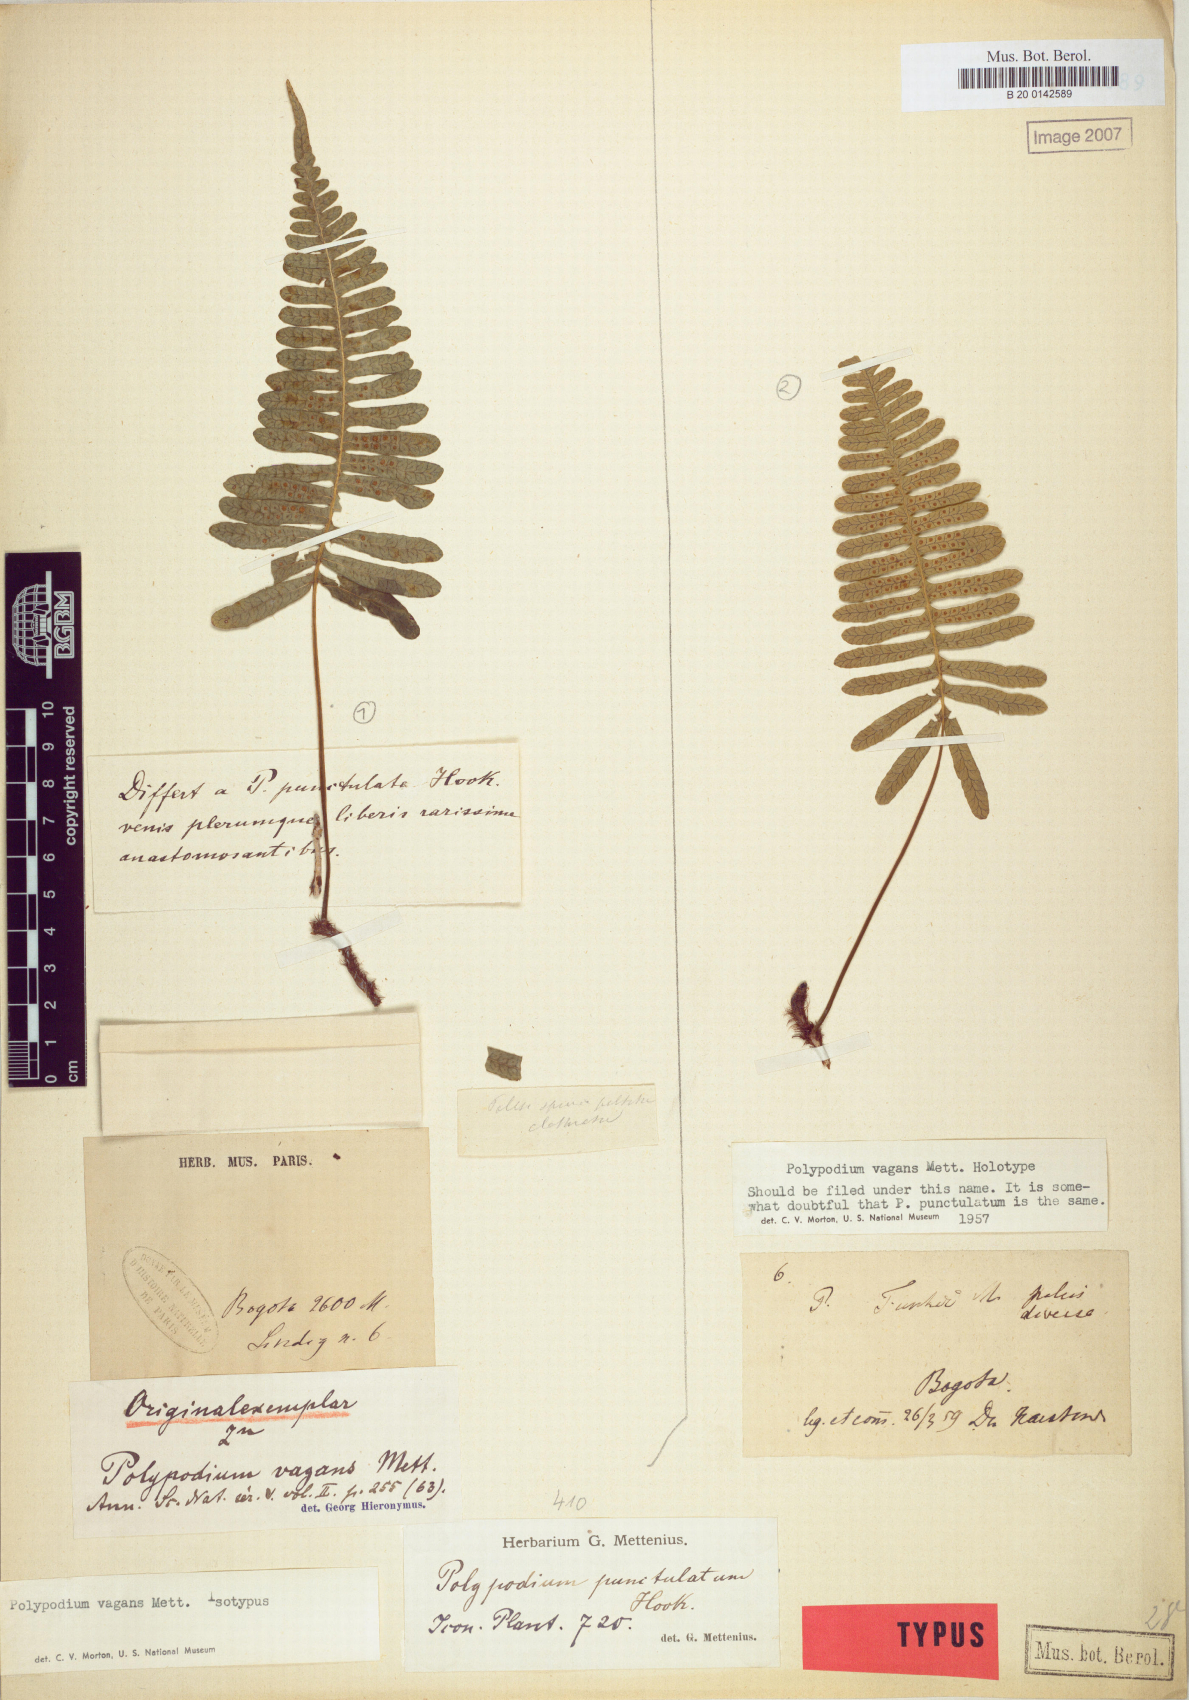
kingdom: Plantae
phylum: Tracheophyta
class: Polypodiopsida
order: Polypodiales
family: Polypodiaceae
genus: Serpocaulon
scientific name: Serpocaulon eleutherophlebium
